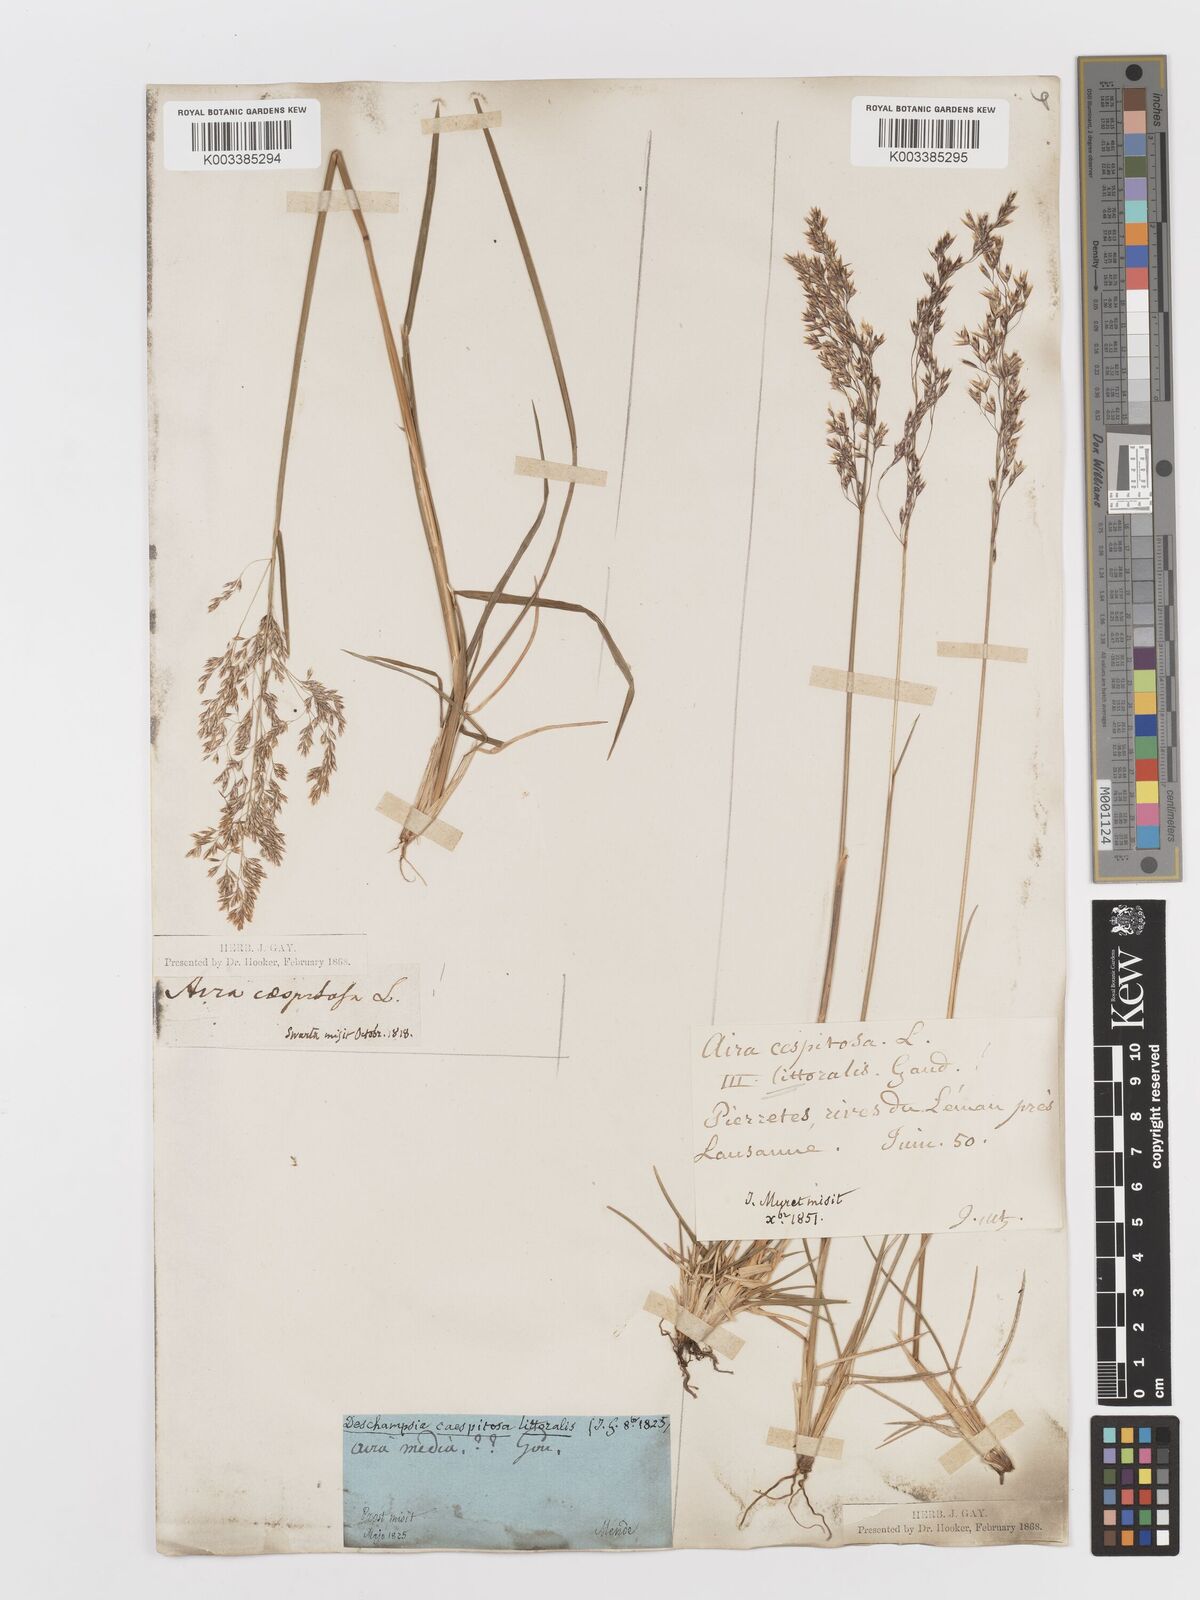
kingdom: Plantae
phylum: Tracheophyta
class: Liliopsida
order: Poales
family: Poaceae
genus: Deschampsia
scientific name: Deschampsia cespitosa
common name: Tufted hair-grass
